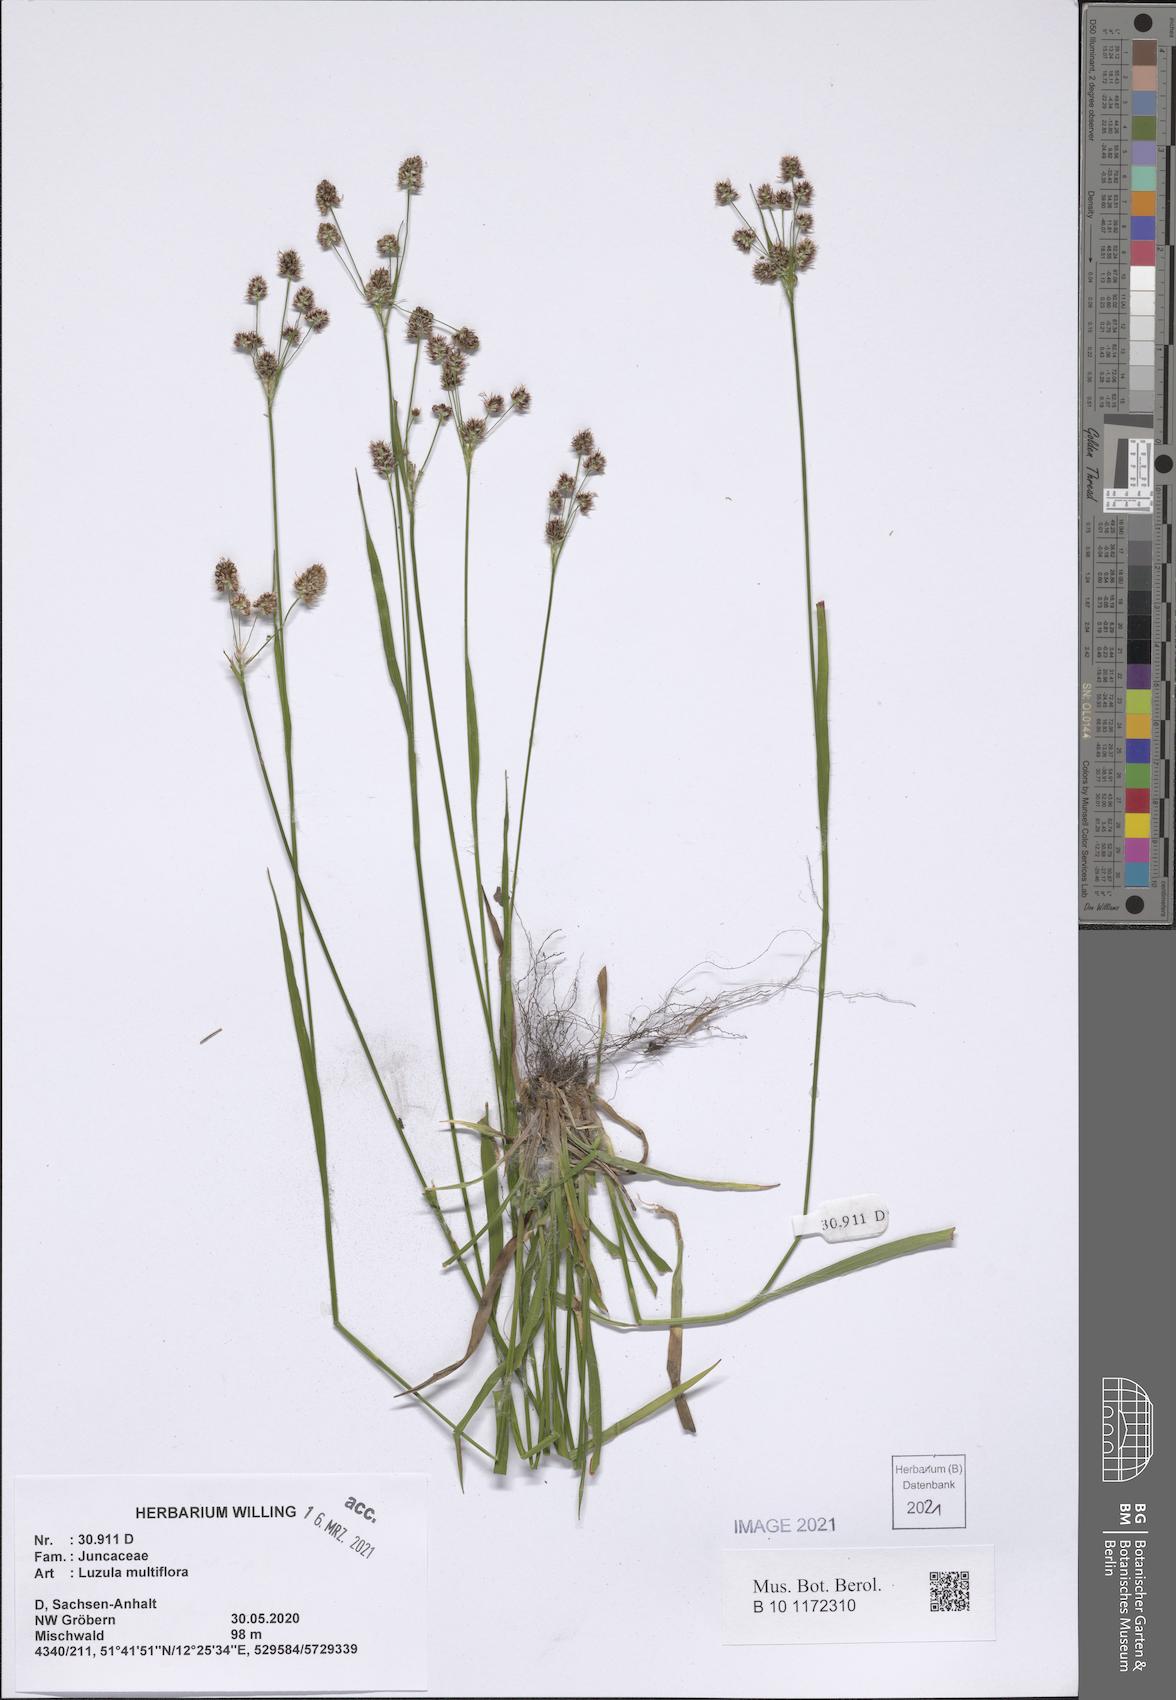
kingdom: Plantae
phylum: Tracheophyta
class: Liliopsida
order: Poales
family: Juncaceae
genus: Luzula
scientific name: Luzula multiflora
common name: Heath wood-rush
